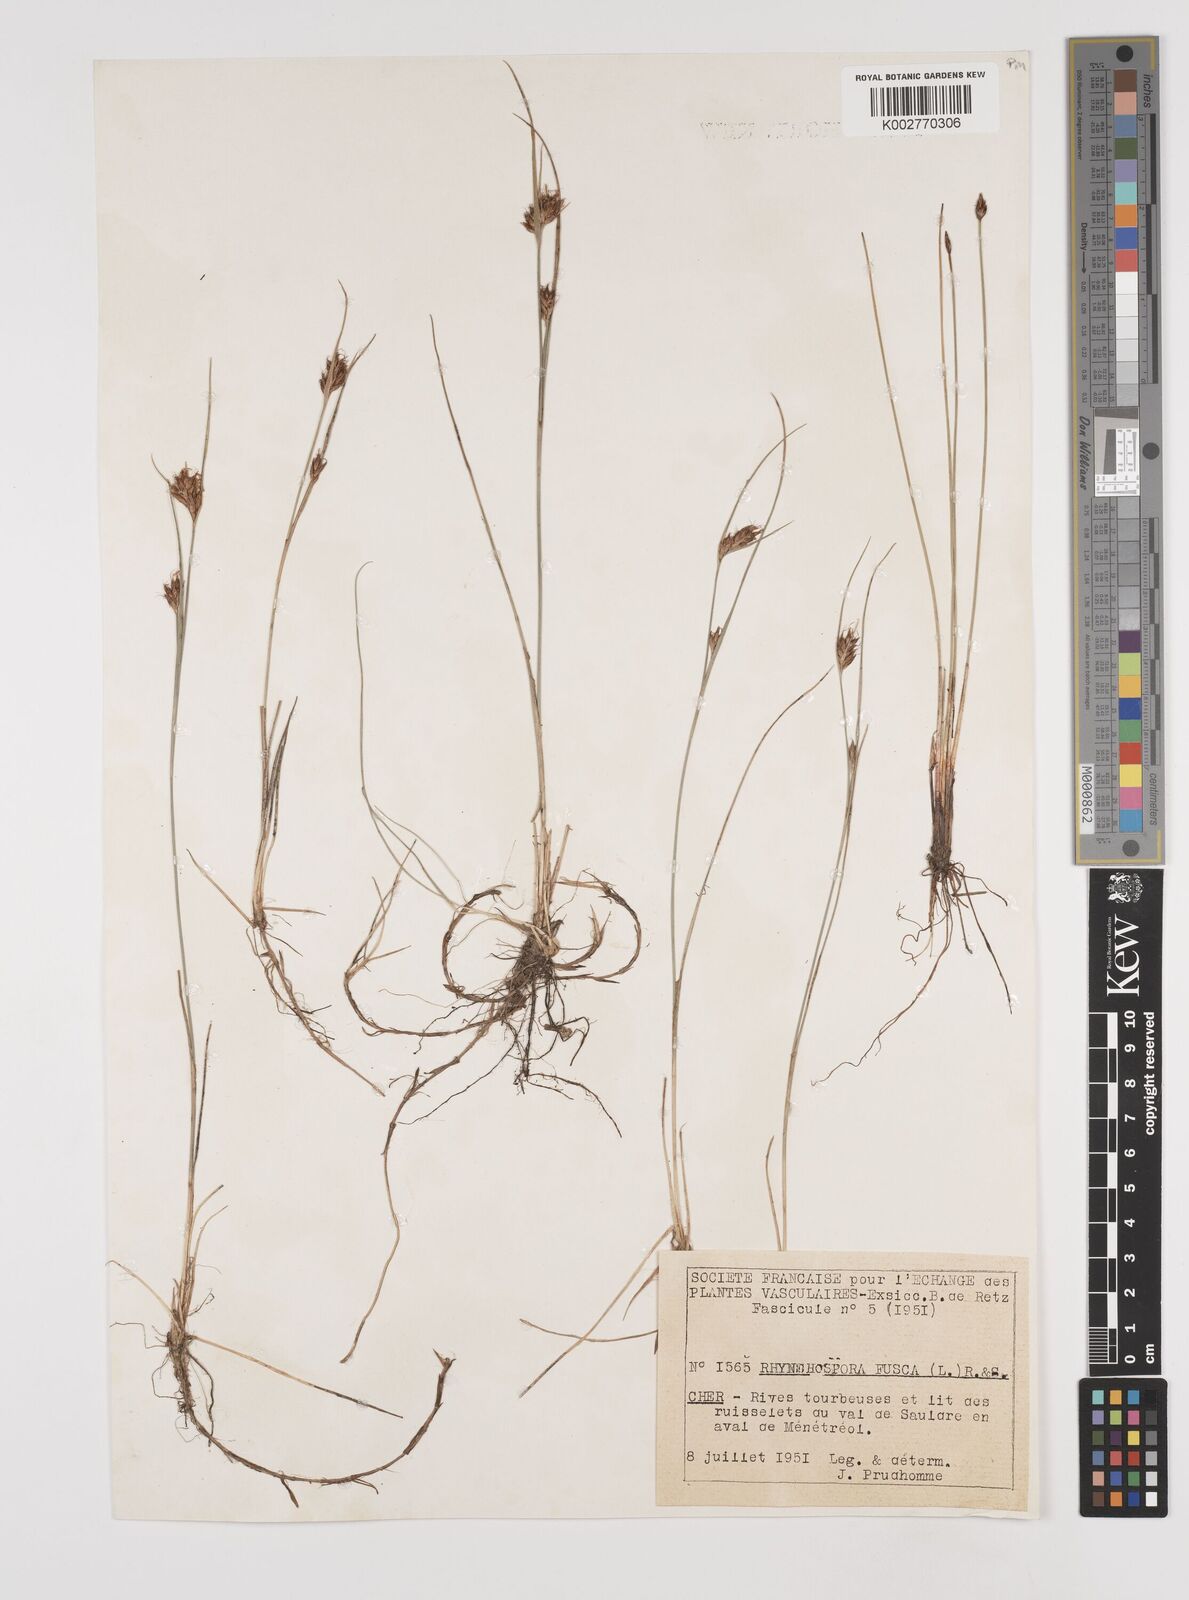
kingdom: Plantae
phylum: Tracheophyta
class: Liliopsida
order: Poales
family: Cyperaceae
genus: Rhynchospora
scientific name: Rhynchospora fusca
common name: Brown beak-sedge
